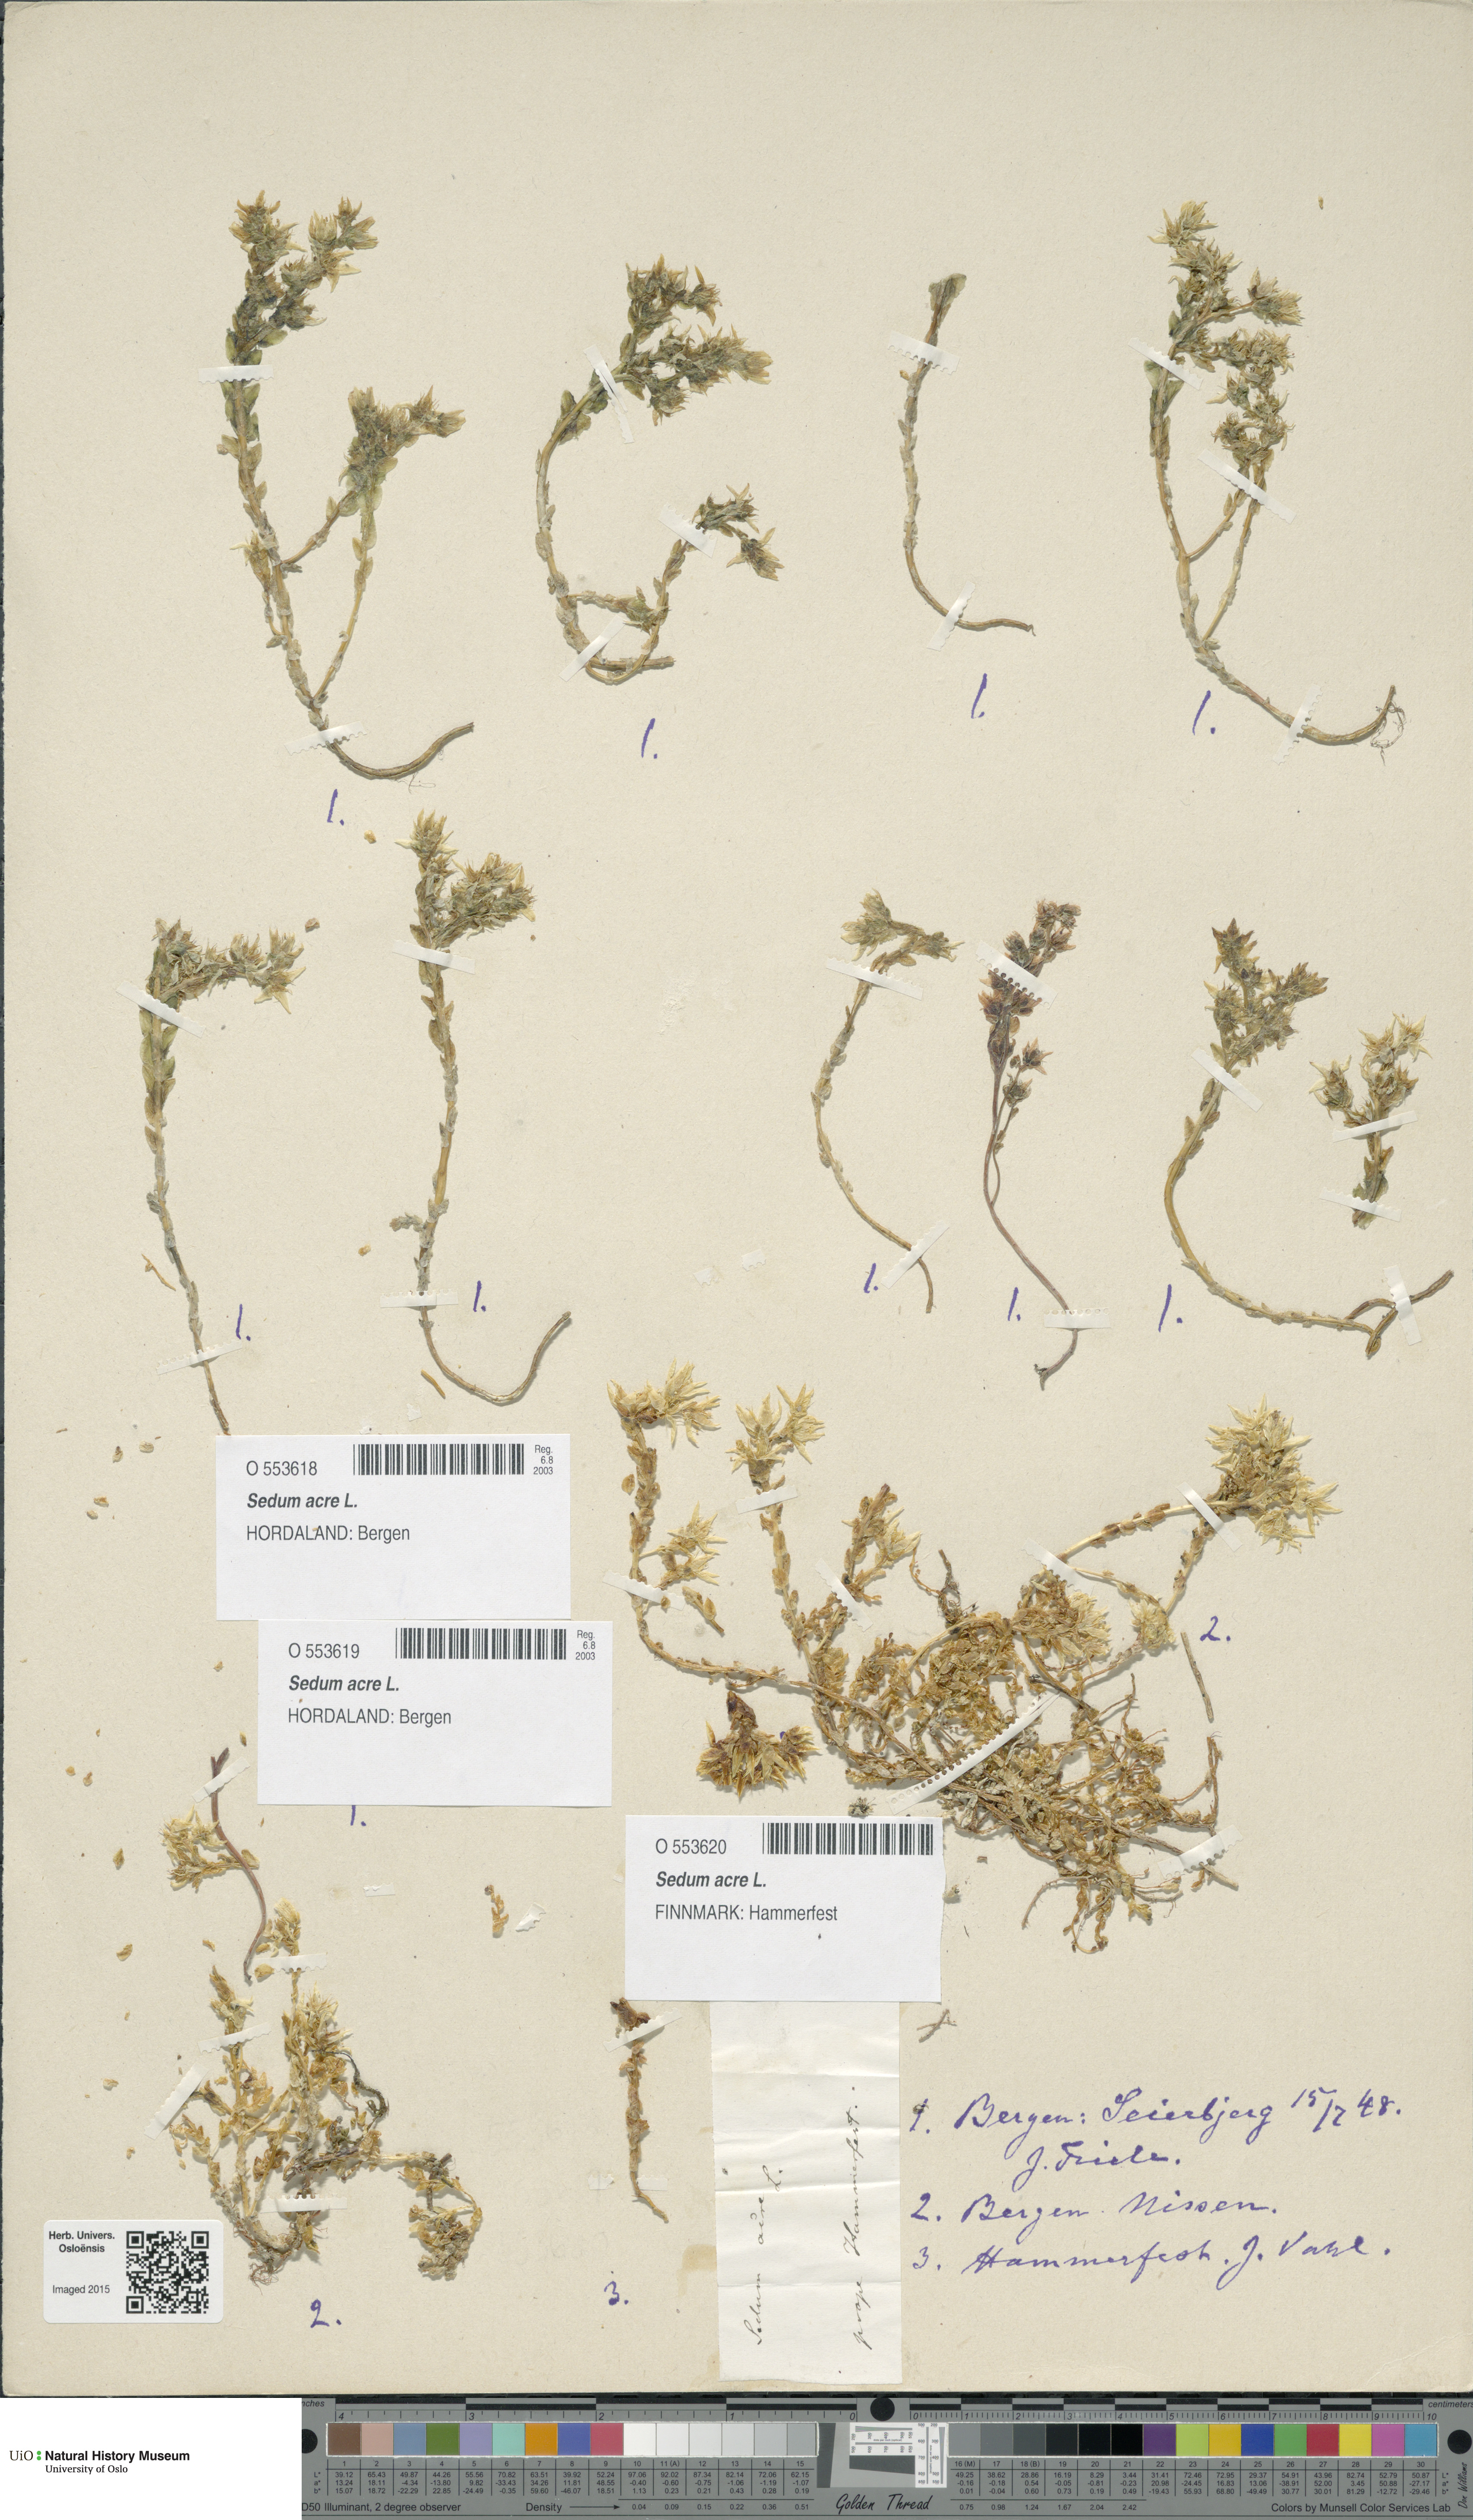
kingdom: Plantae
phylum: Tracheophyta
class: Magnoliopsida
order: Saxifragales
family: Crassulaceae
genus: Sedum
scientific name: Sedum acre
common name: Biting stonecrop
